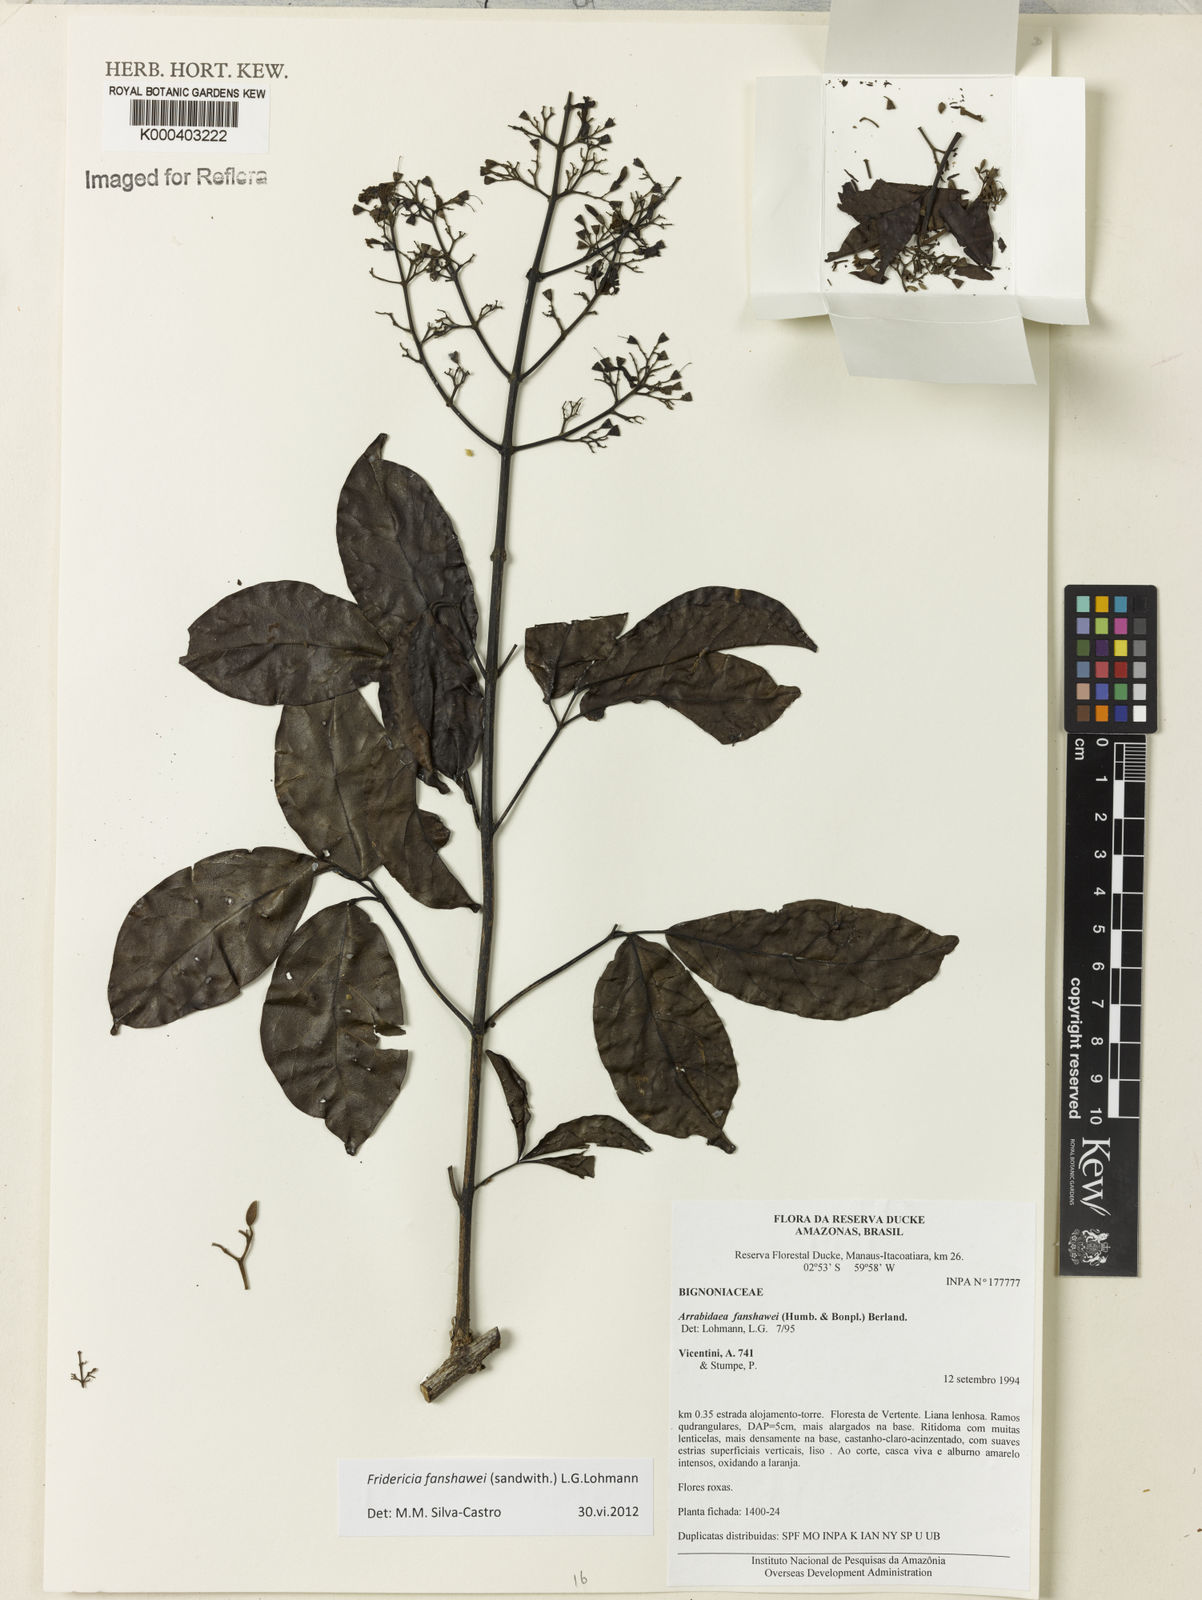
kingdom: Plantae
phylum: Tracheophyta
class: Magnoliopsida
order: Lamiales
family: Bignoniaceae
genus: Fridericia
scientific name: Fridericia fanshawei
